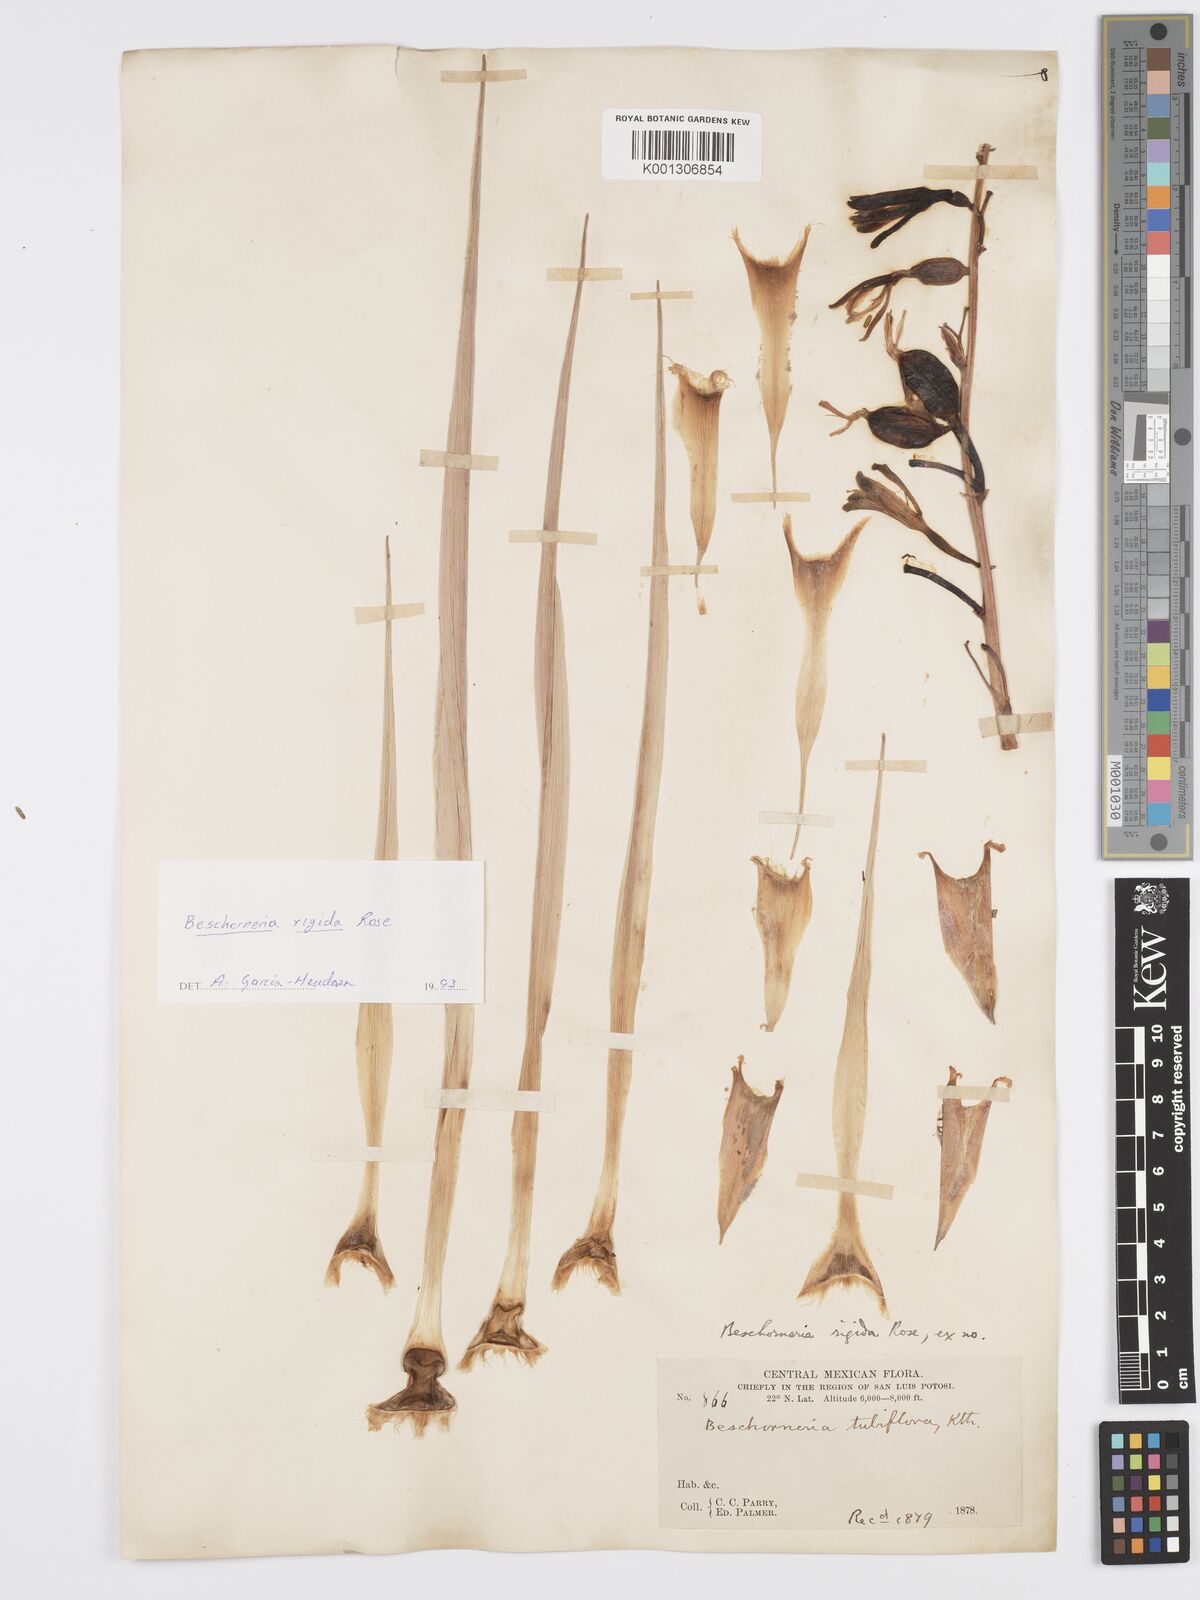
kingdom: Plantae
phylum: Tracheophyta
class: Liliopsida
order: Asparagales
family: Asparagaceae
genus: Beschorneria
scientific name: Beschorneria rigida
